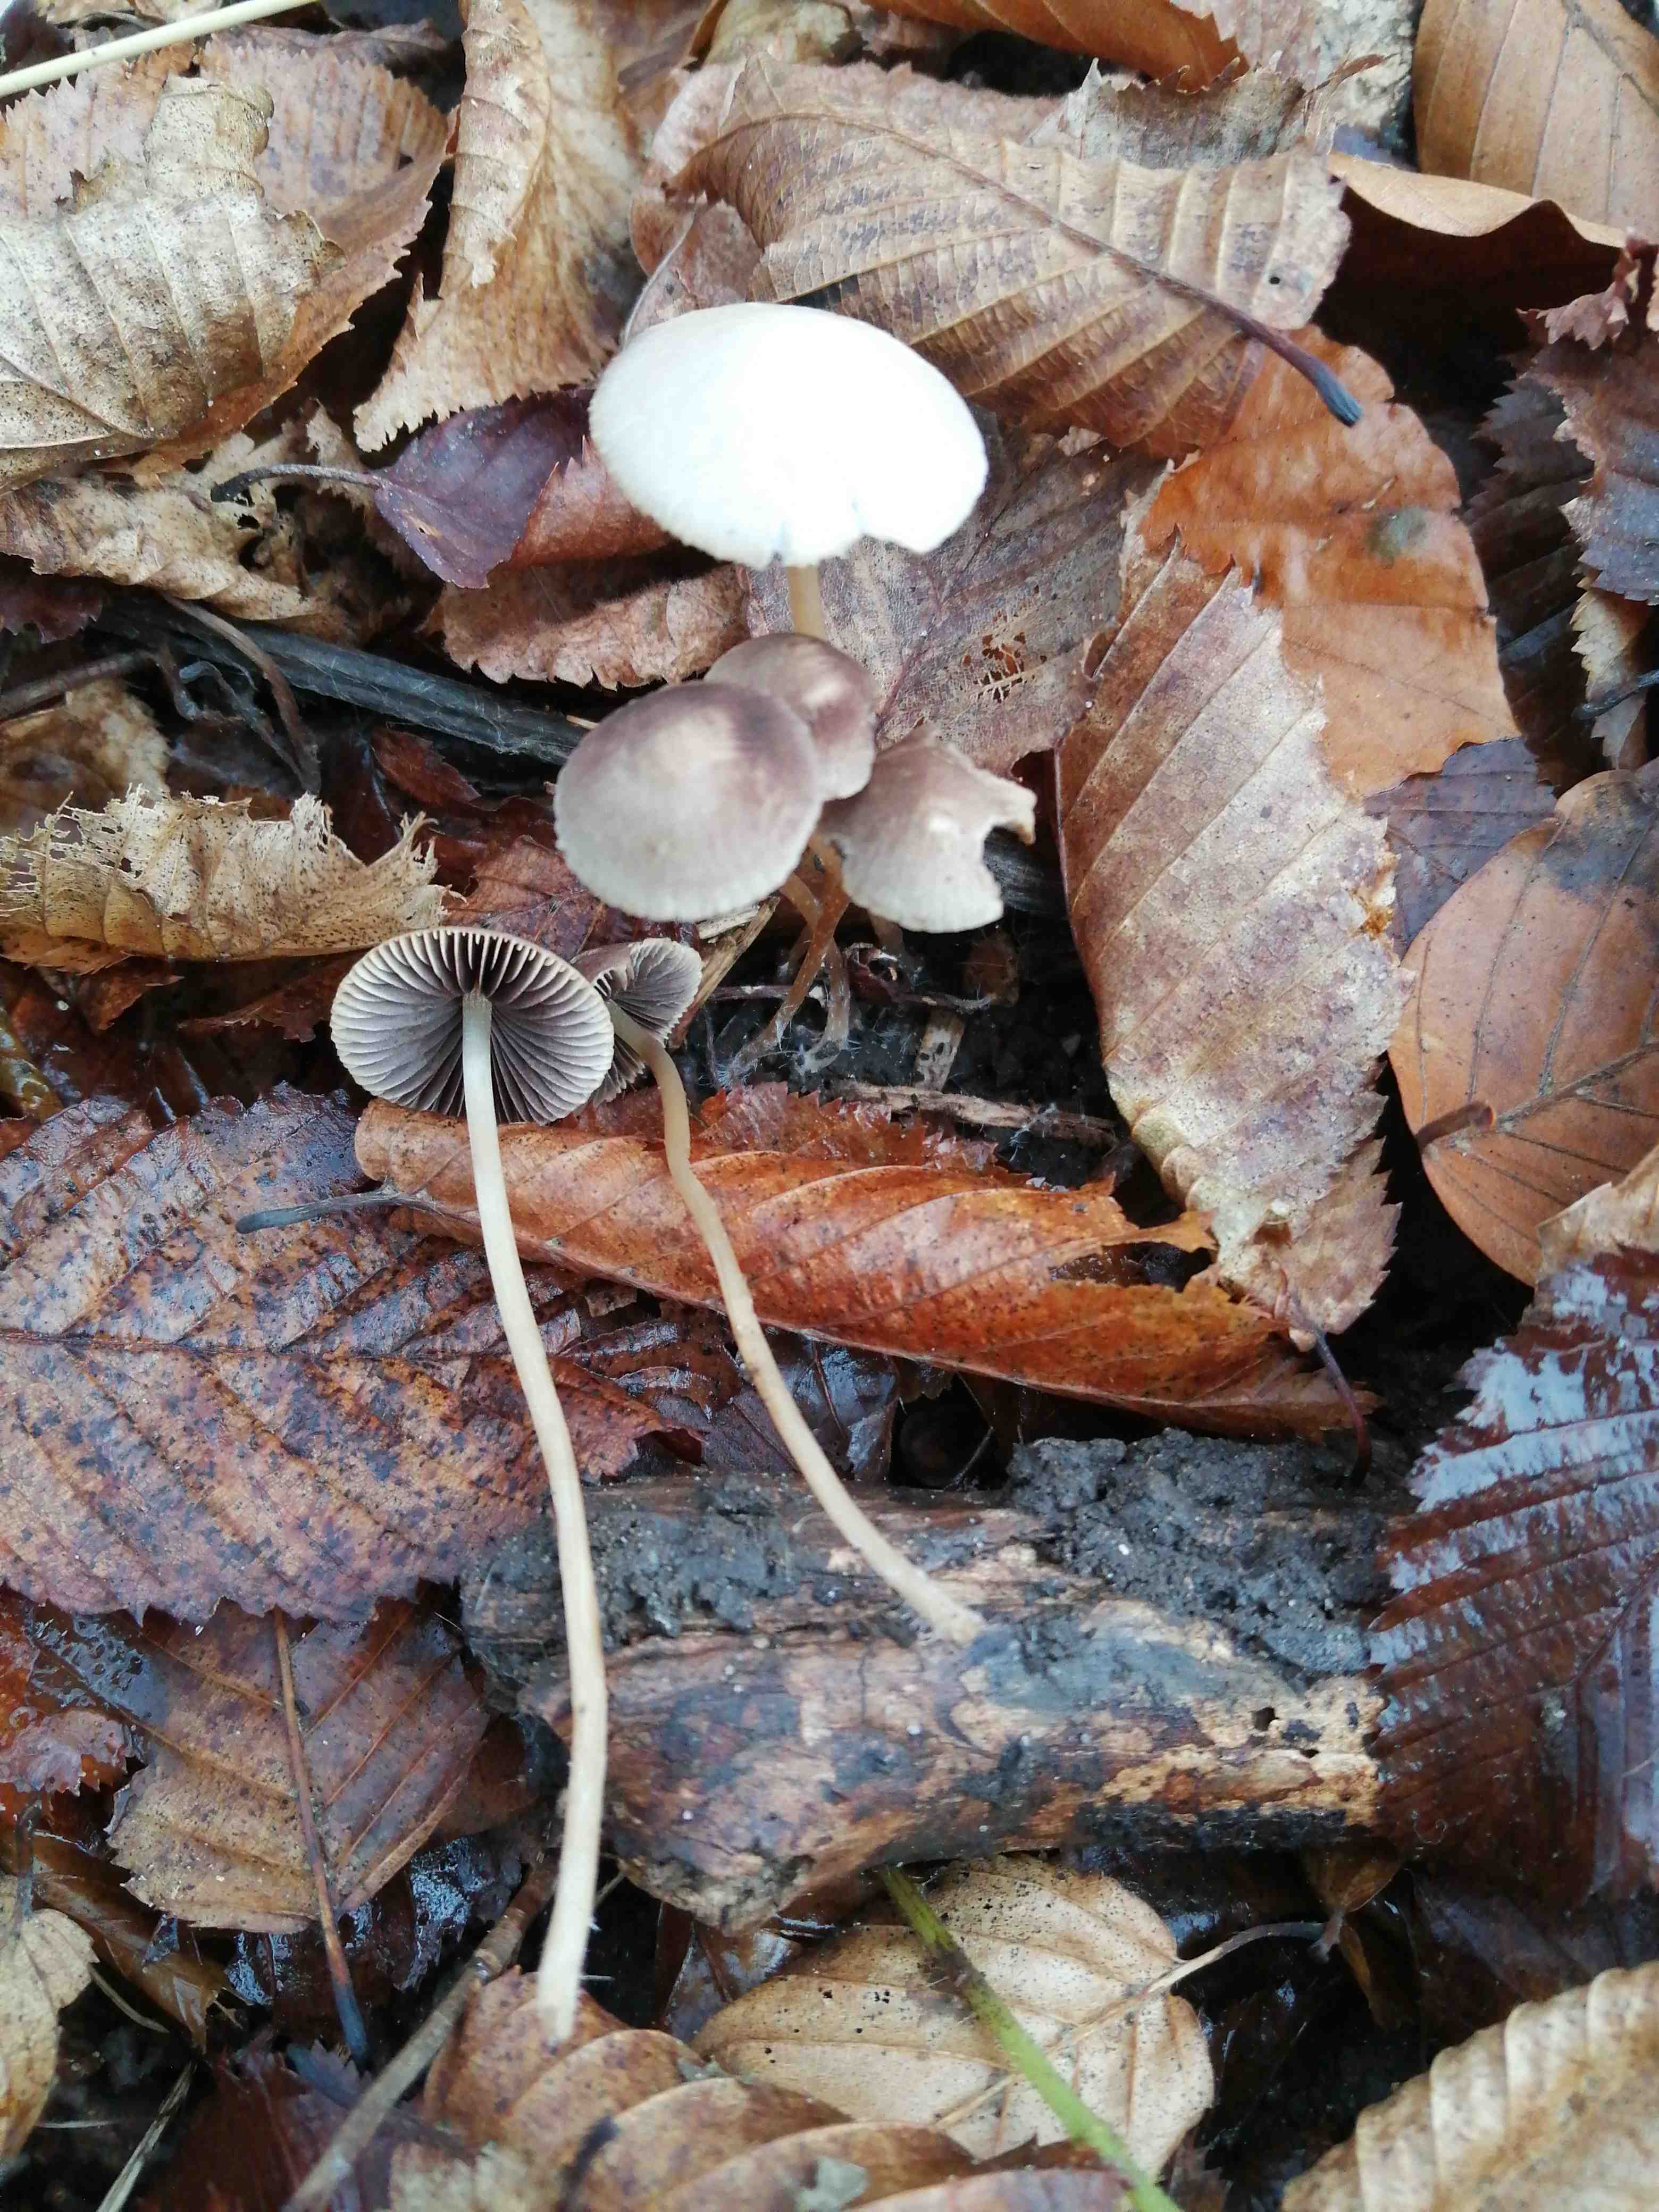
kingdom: Fungi
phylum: Basidiomycota
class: Agaricomycetes
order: Agaricales
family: Psathyrellaceae
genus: Psathyrella
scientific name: Psathyrella
